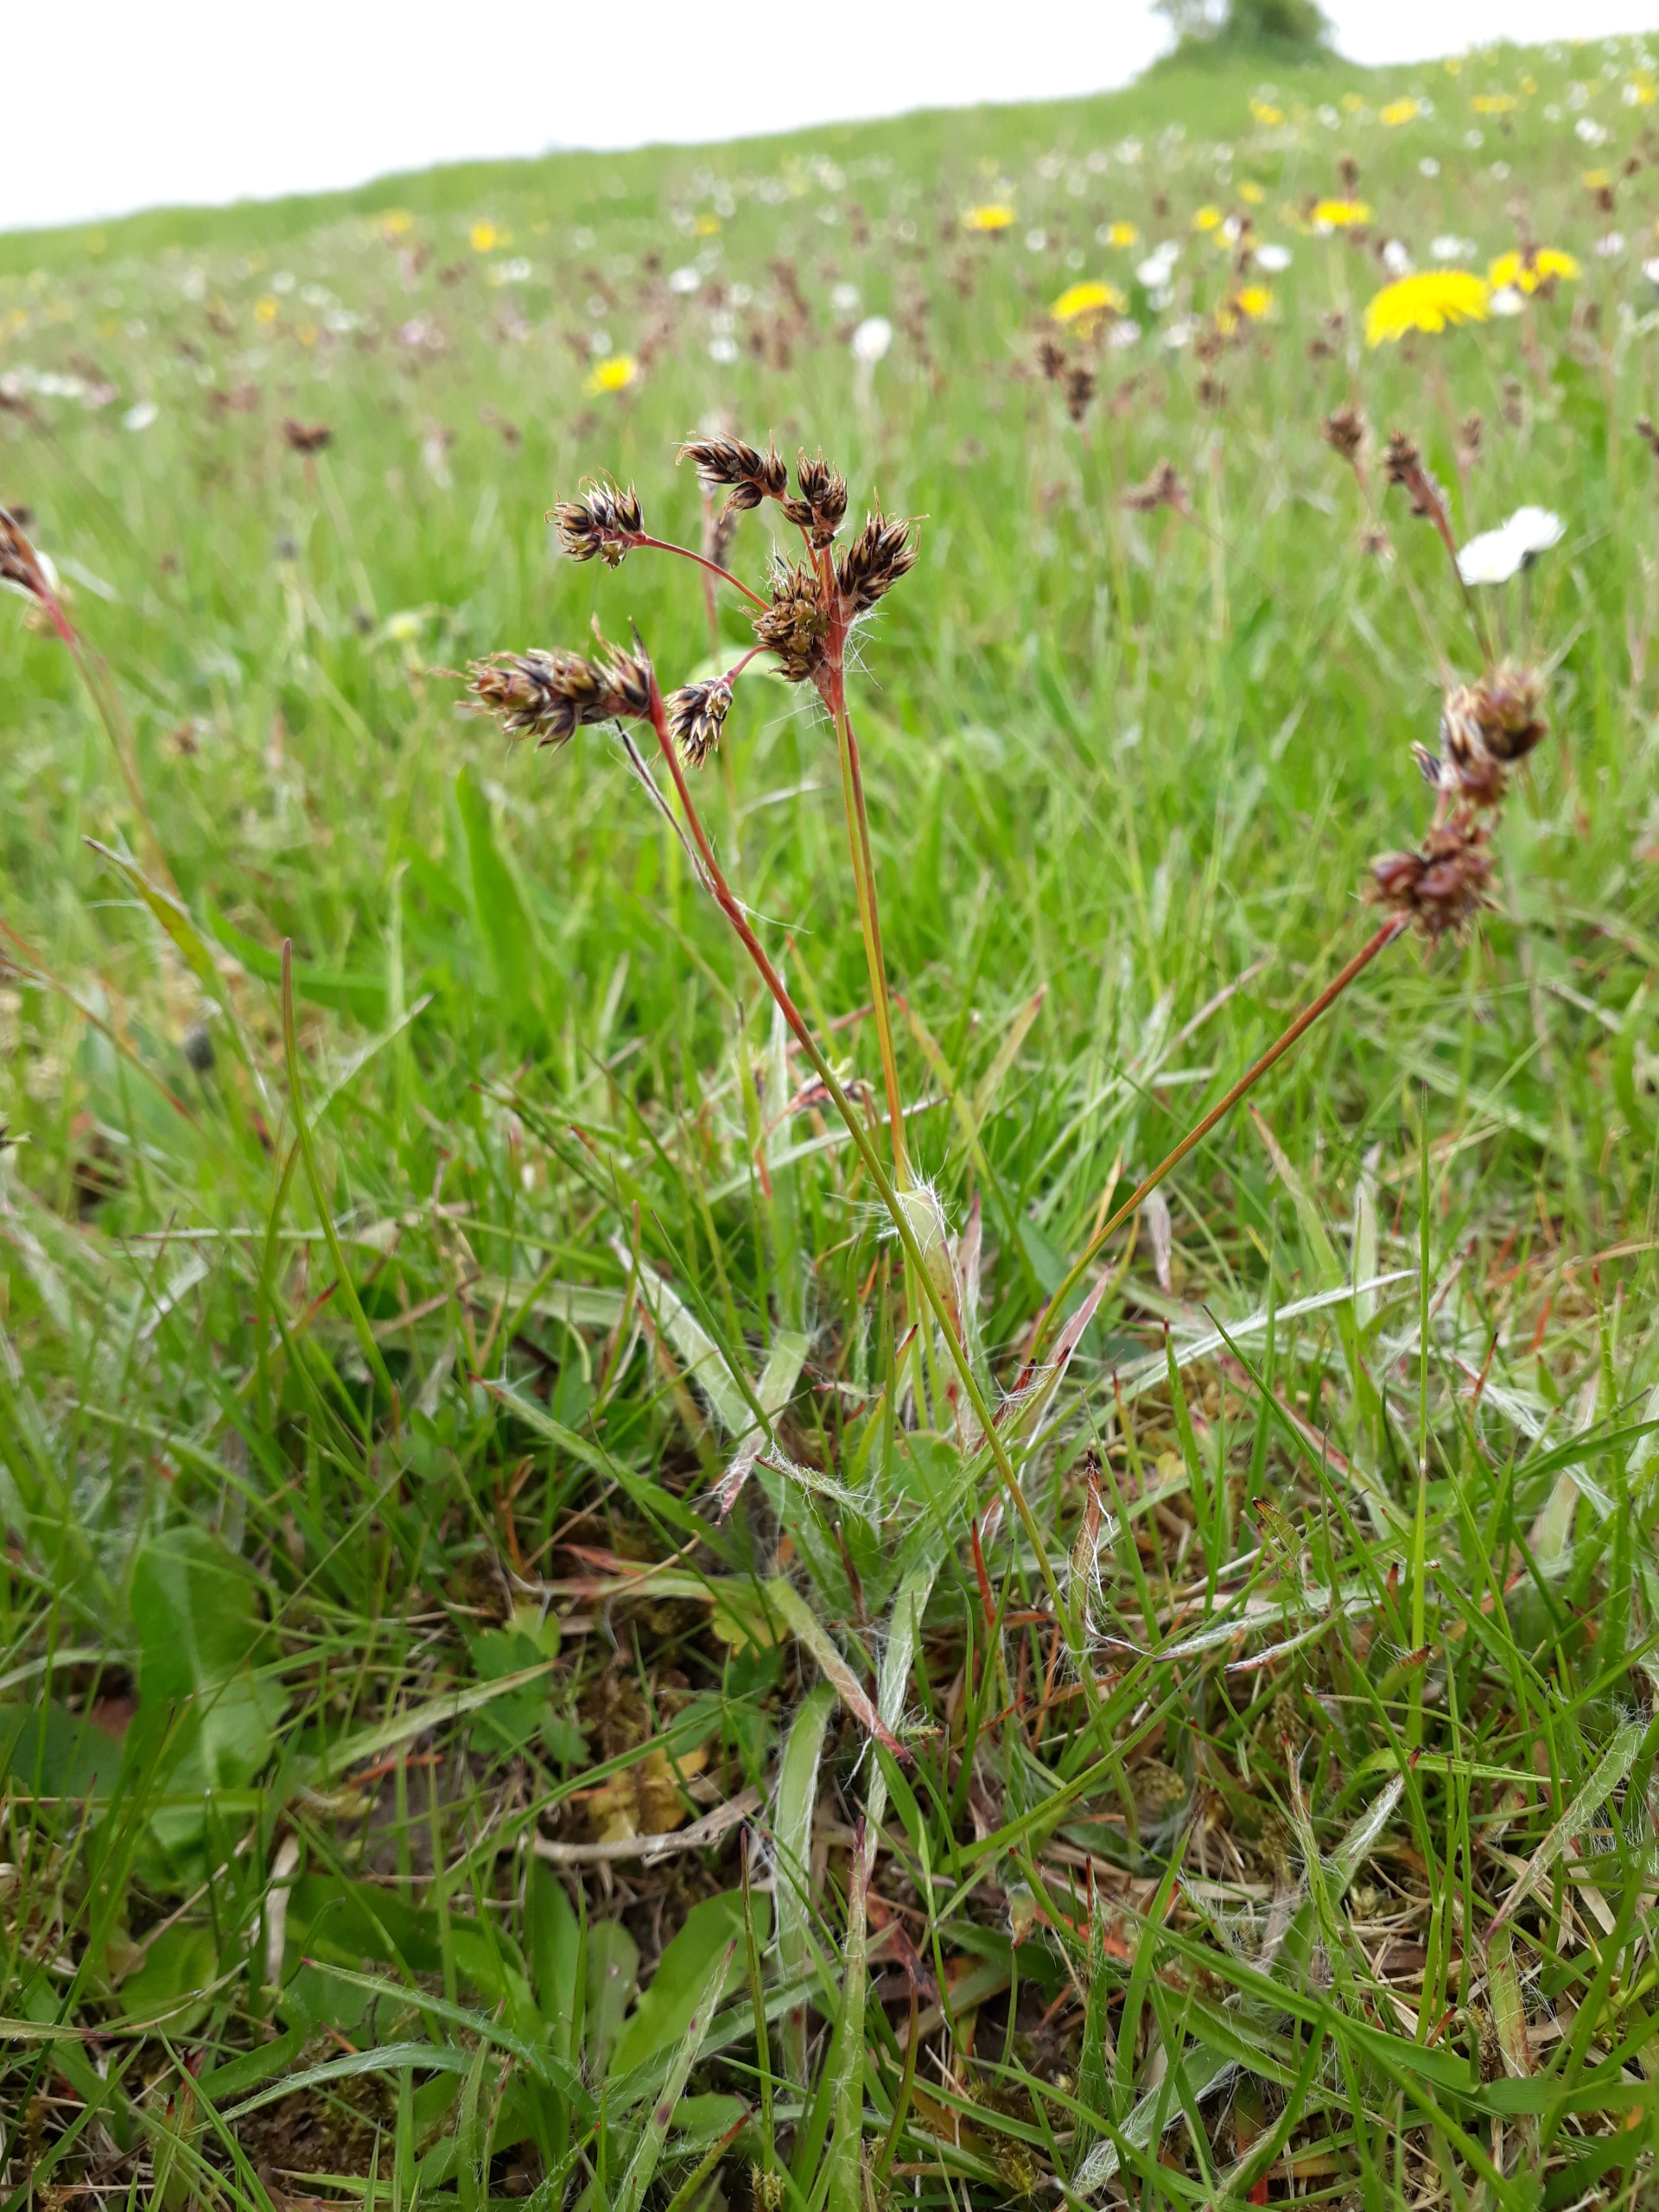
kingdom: Plantae
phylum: Tracheophyta
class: Liliopsida
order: Poales
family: Juncaceae
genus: Luzula
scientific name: Luzula campestris
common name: Mark-frytle
